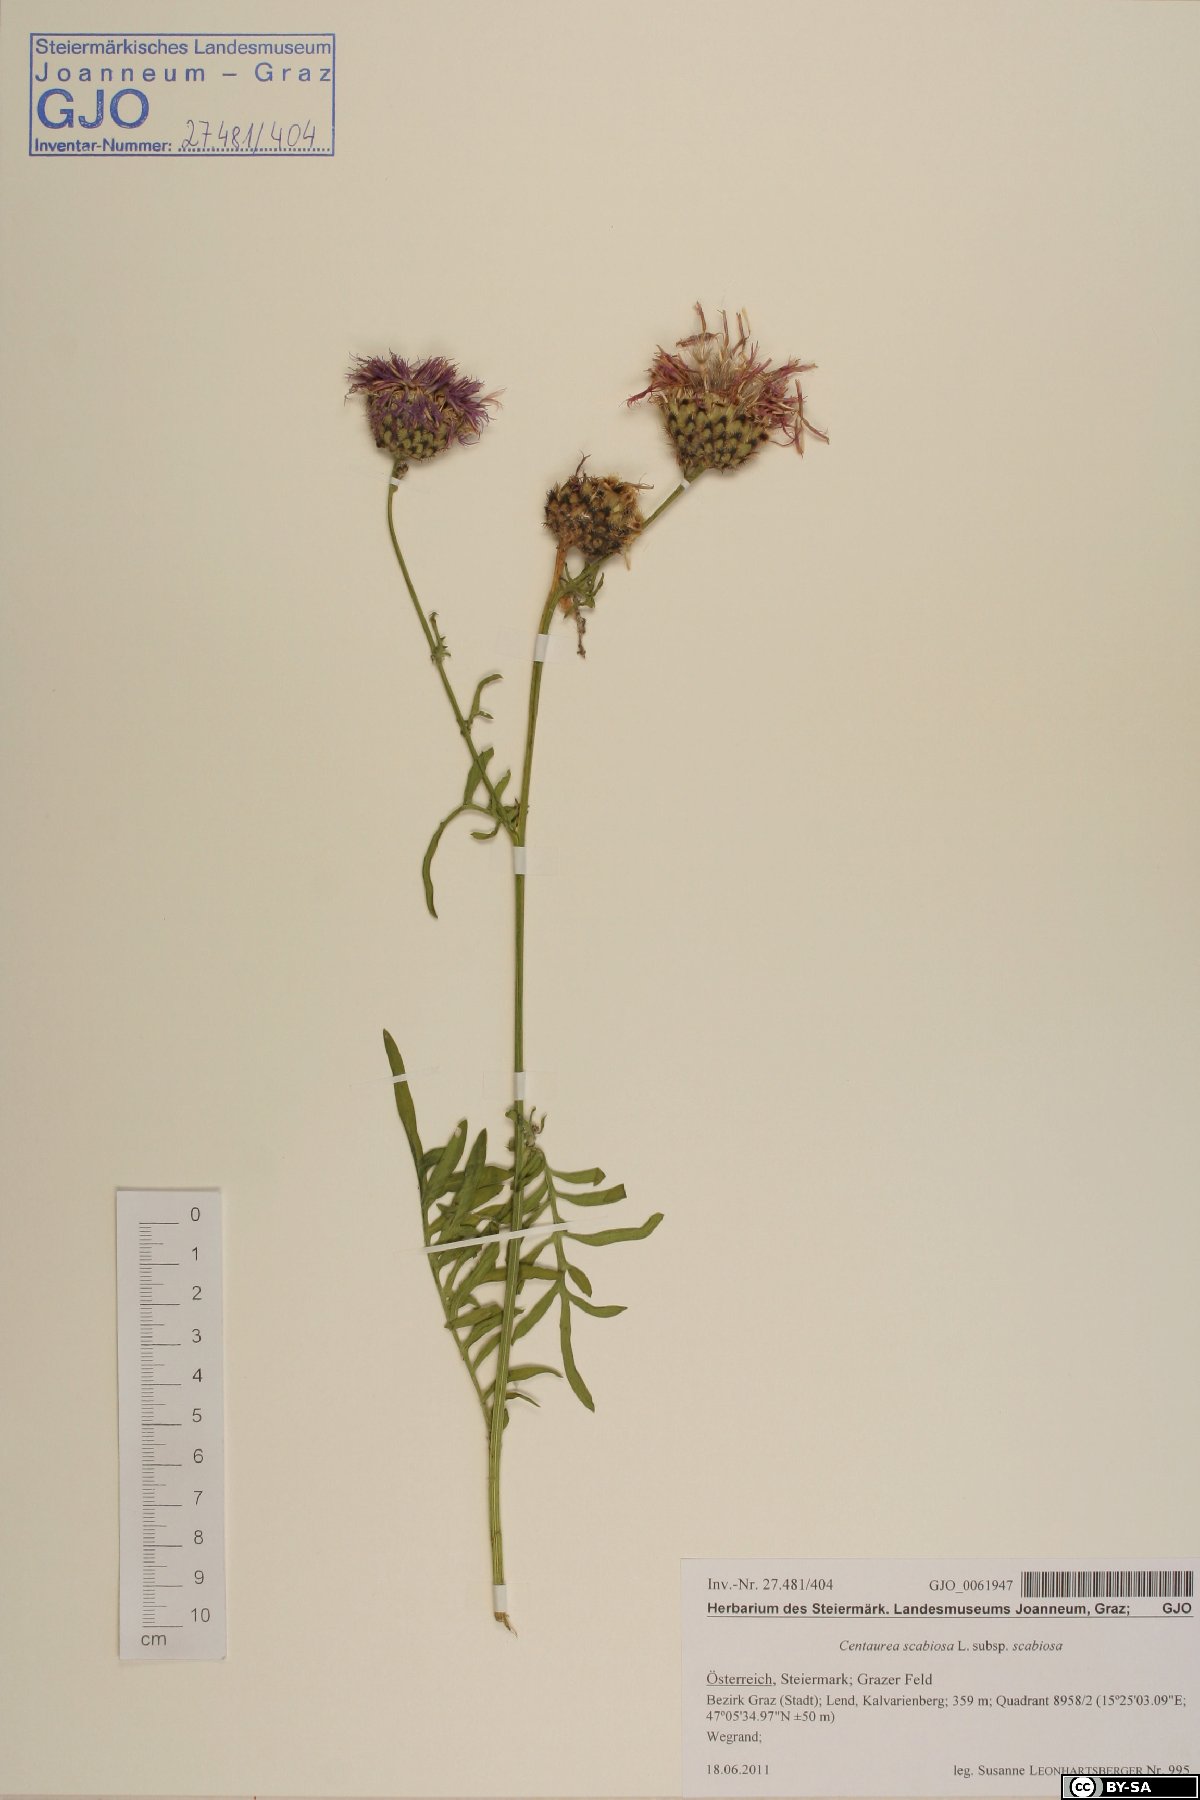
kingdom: Plantae
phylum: Tracheophyta
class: Magnoliopsida
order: Asterales
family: Asteraceae
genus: Centaurea
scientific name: Centaurea scabiosa
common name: Greater knapweed
